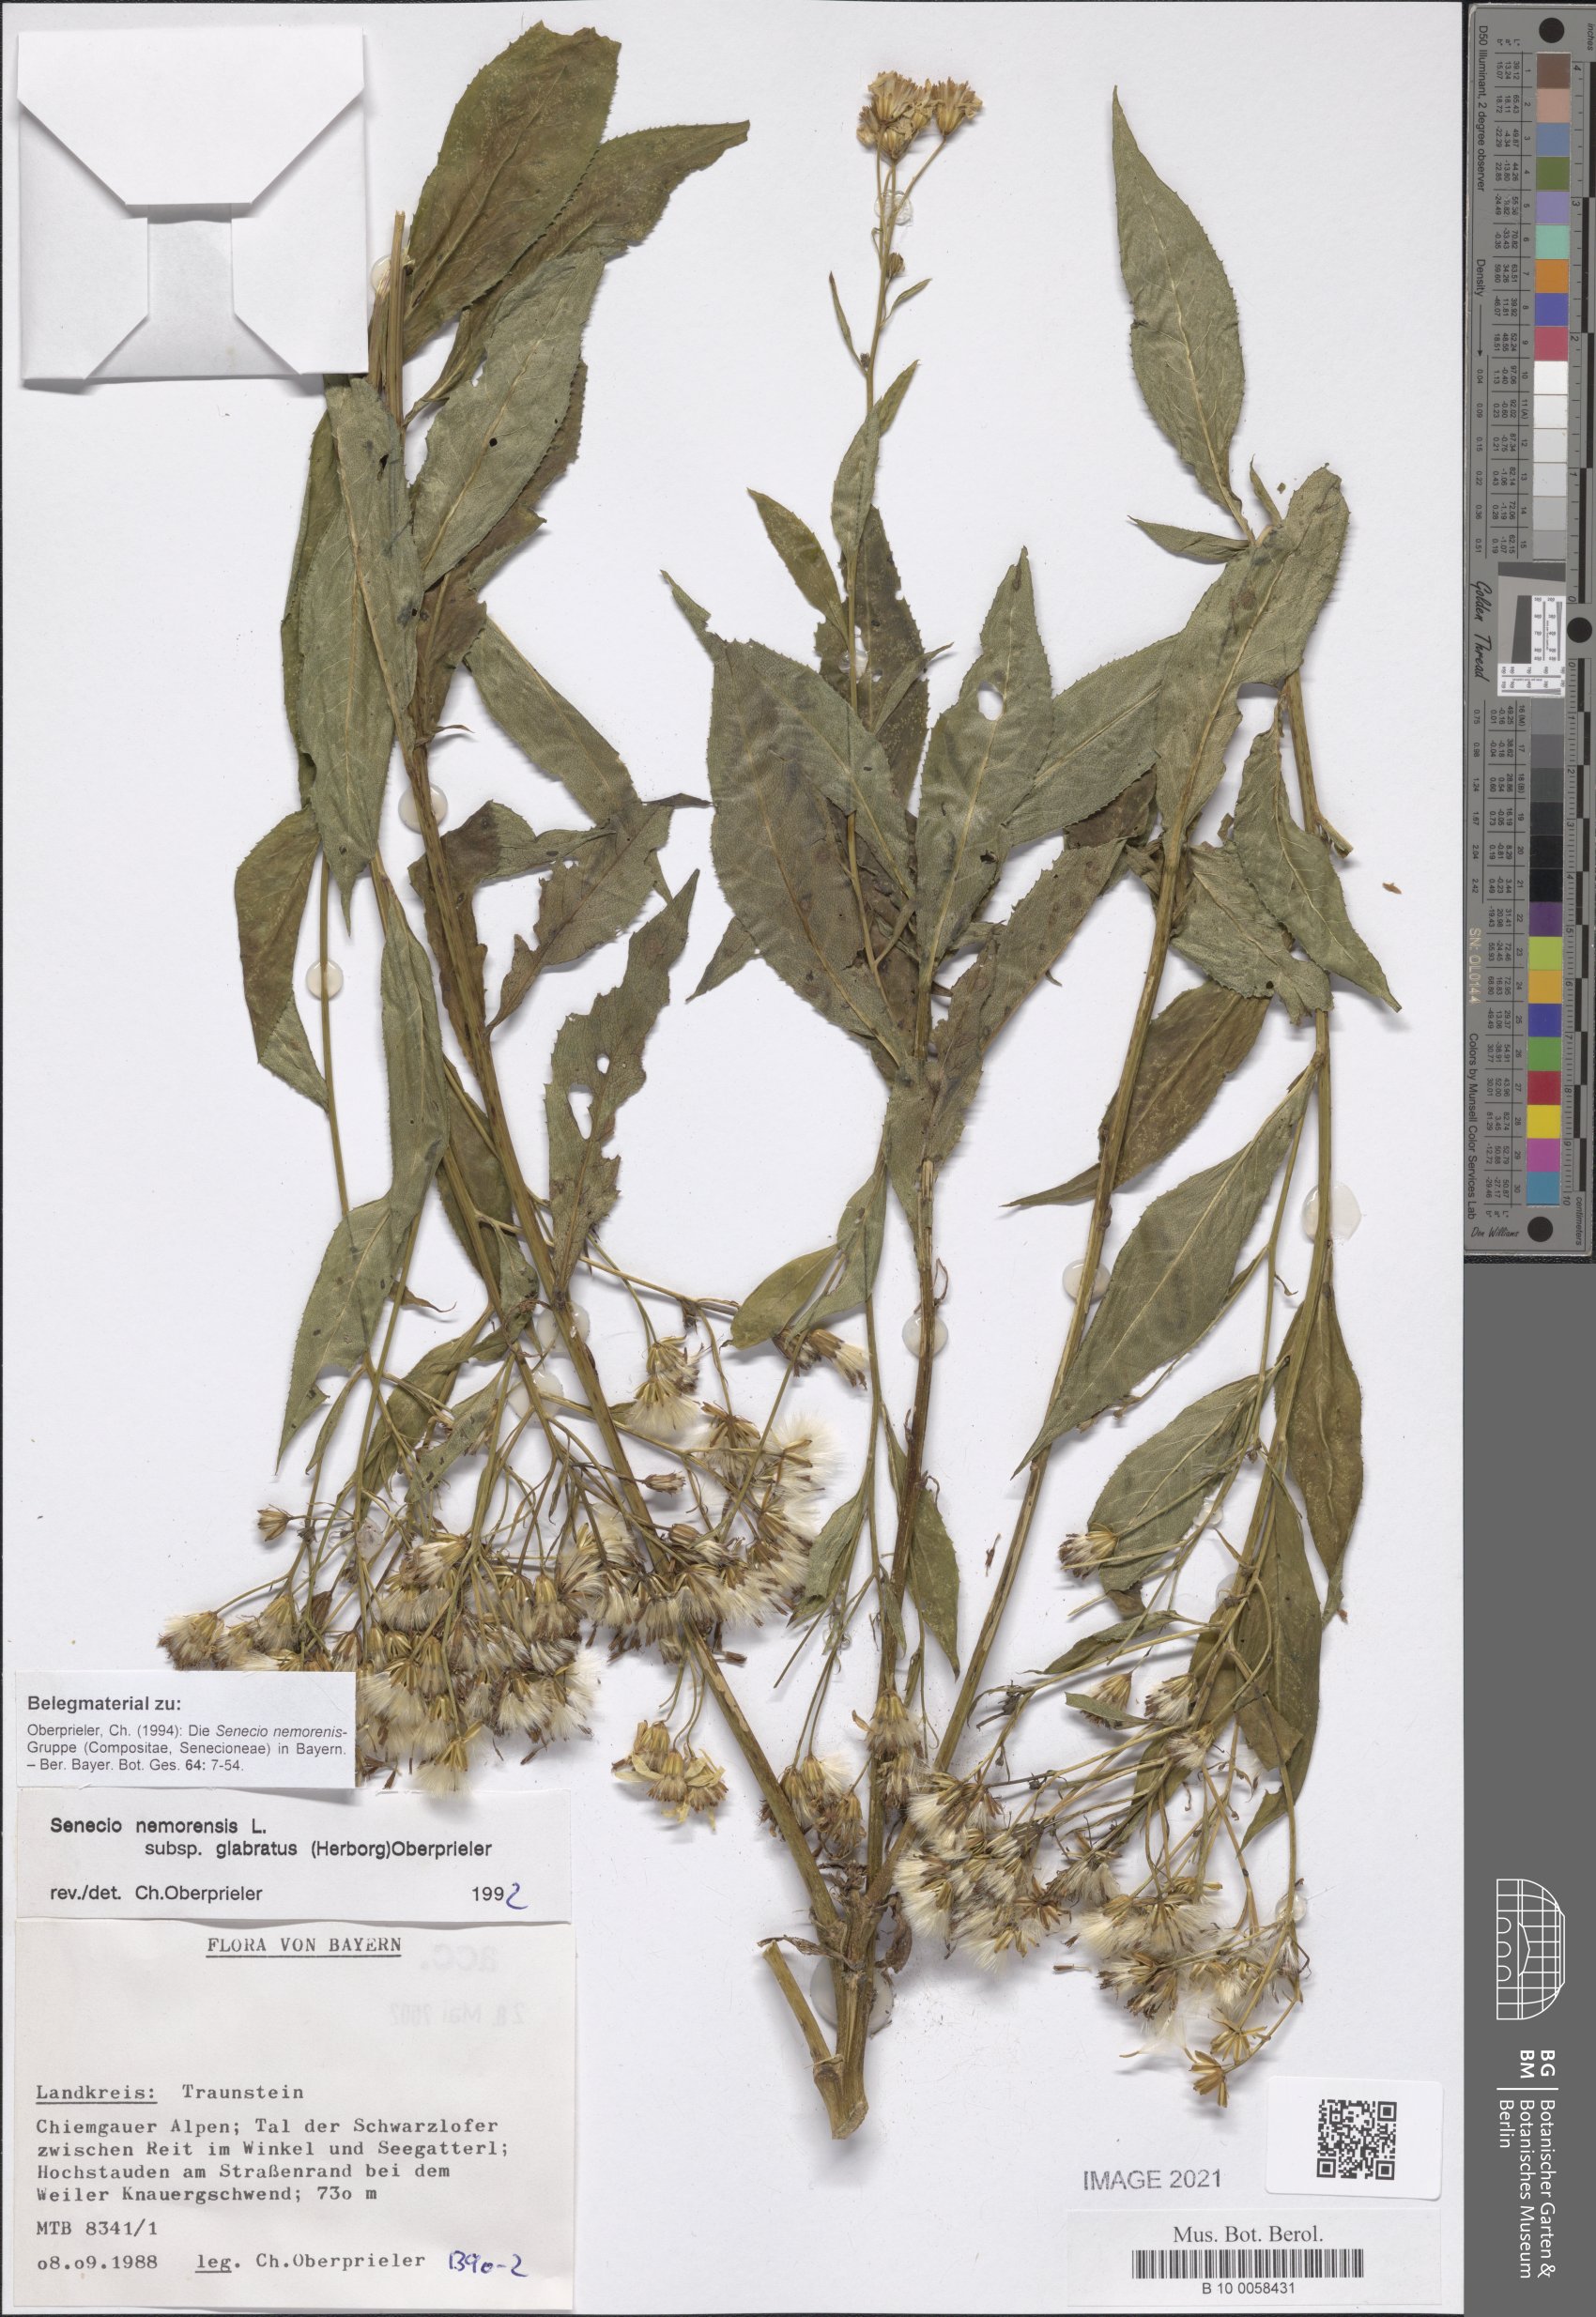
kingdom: Plantae
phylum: Tracheophyta
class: Magnoliopsida
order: Asterales
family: Asteraceae
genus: Senecio
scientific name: Senecio germanicus
